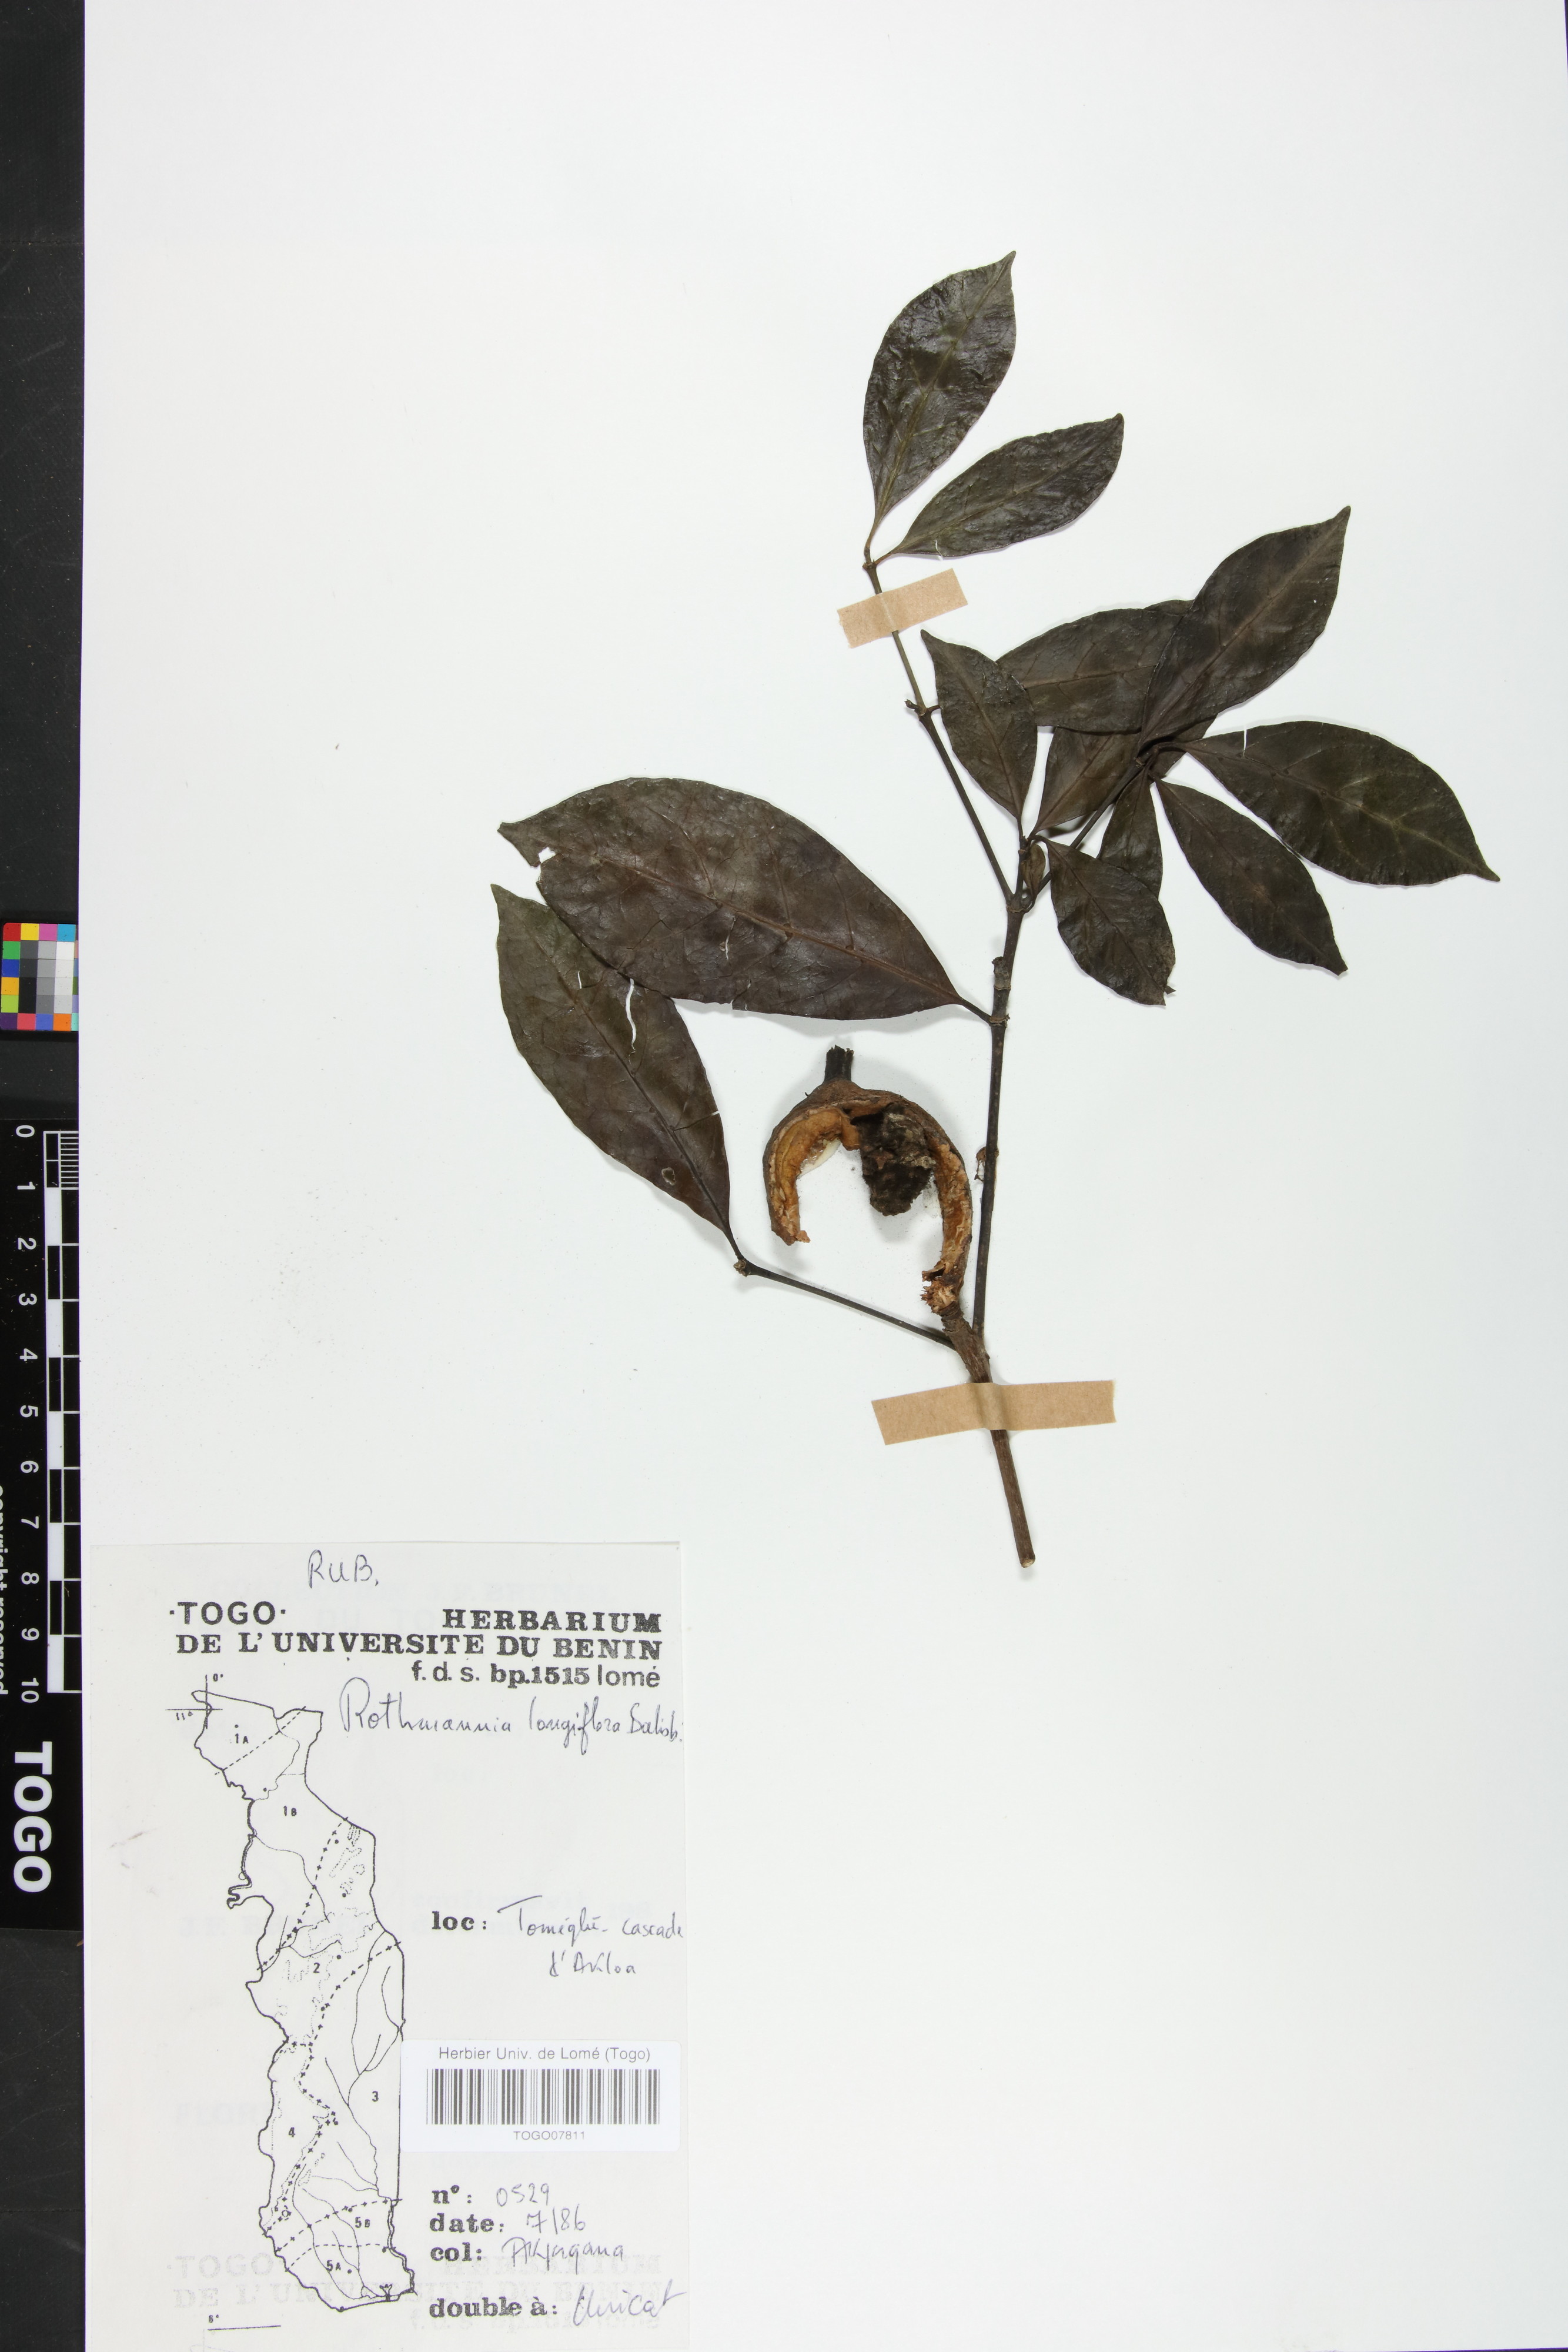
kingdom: Plantae
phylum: Tracheophyta
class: Magnoliopsida
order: Gentianales
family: Rubiaceae
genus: Rothmannia
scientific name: Rothmannia longiflora
